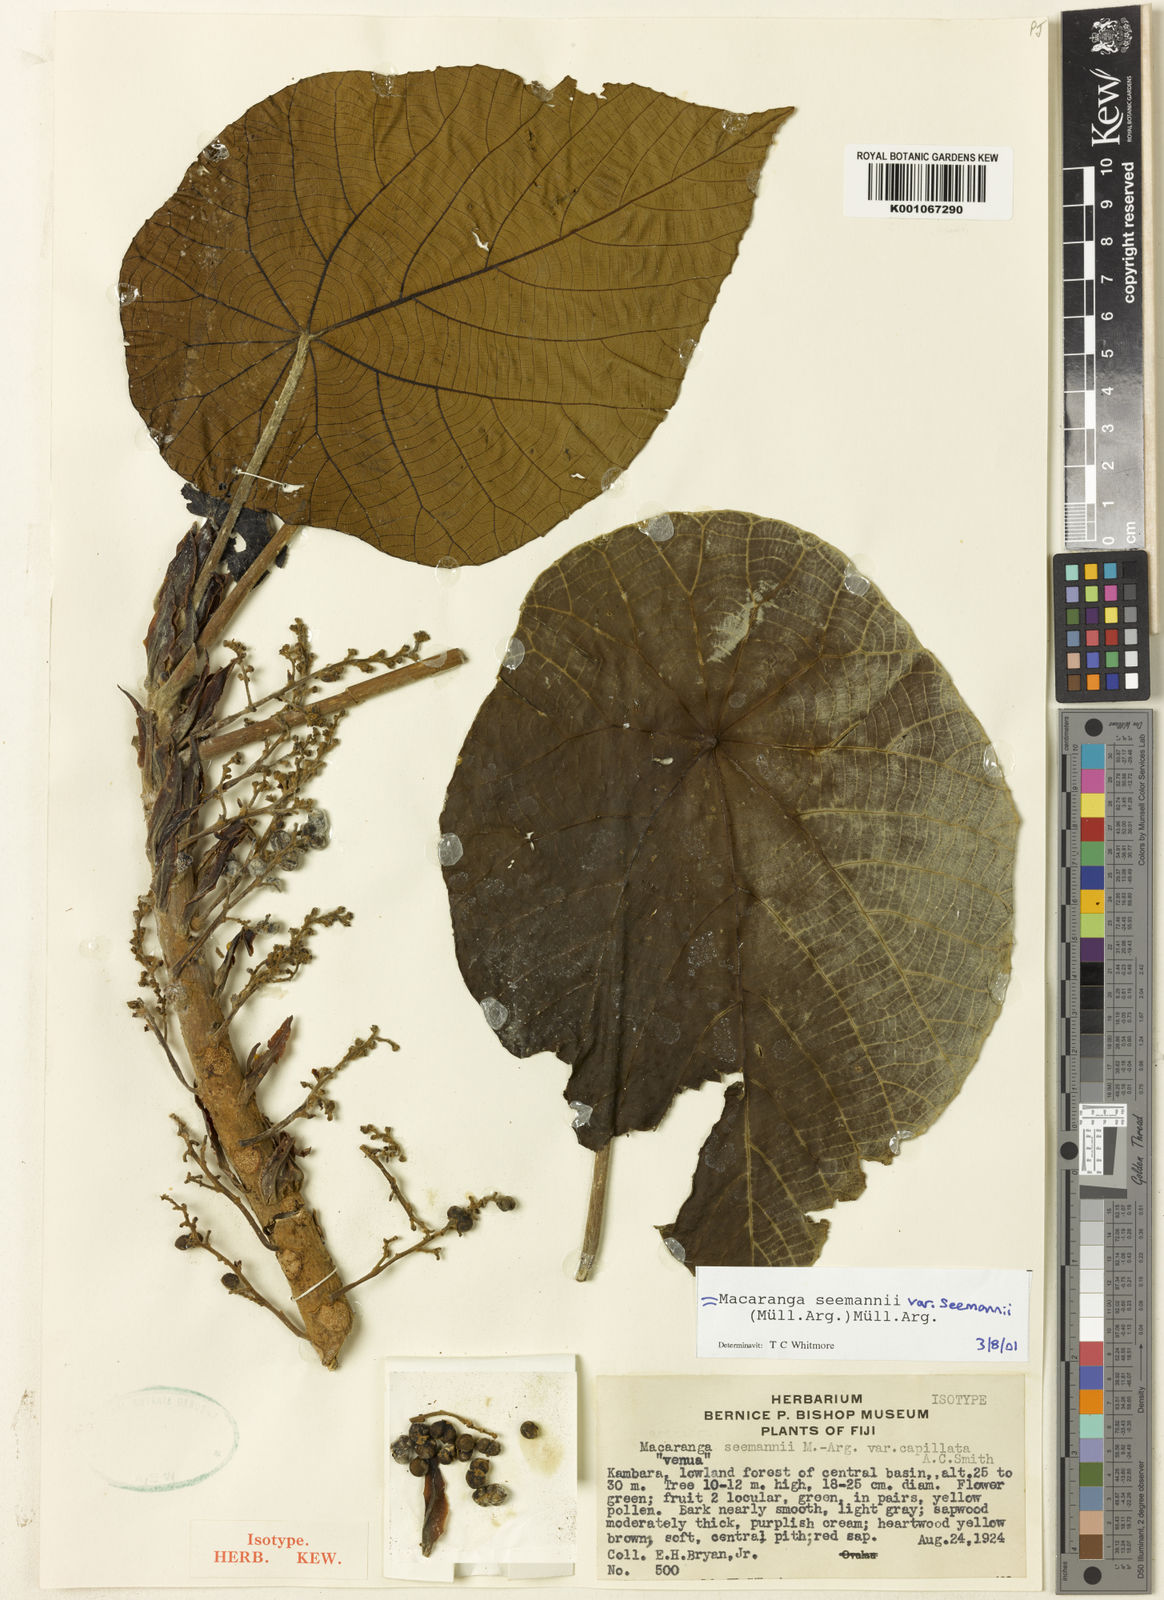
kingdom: Plantae
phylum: Tracheophyta
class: Magnoliopsida
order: Malpighiales
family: Euphorbiaceae
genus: Macaranga
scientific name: Macaranga
